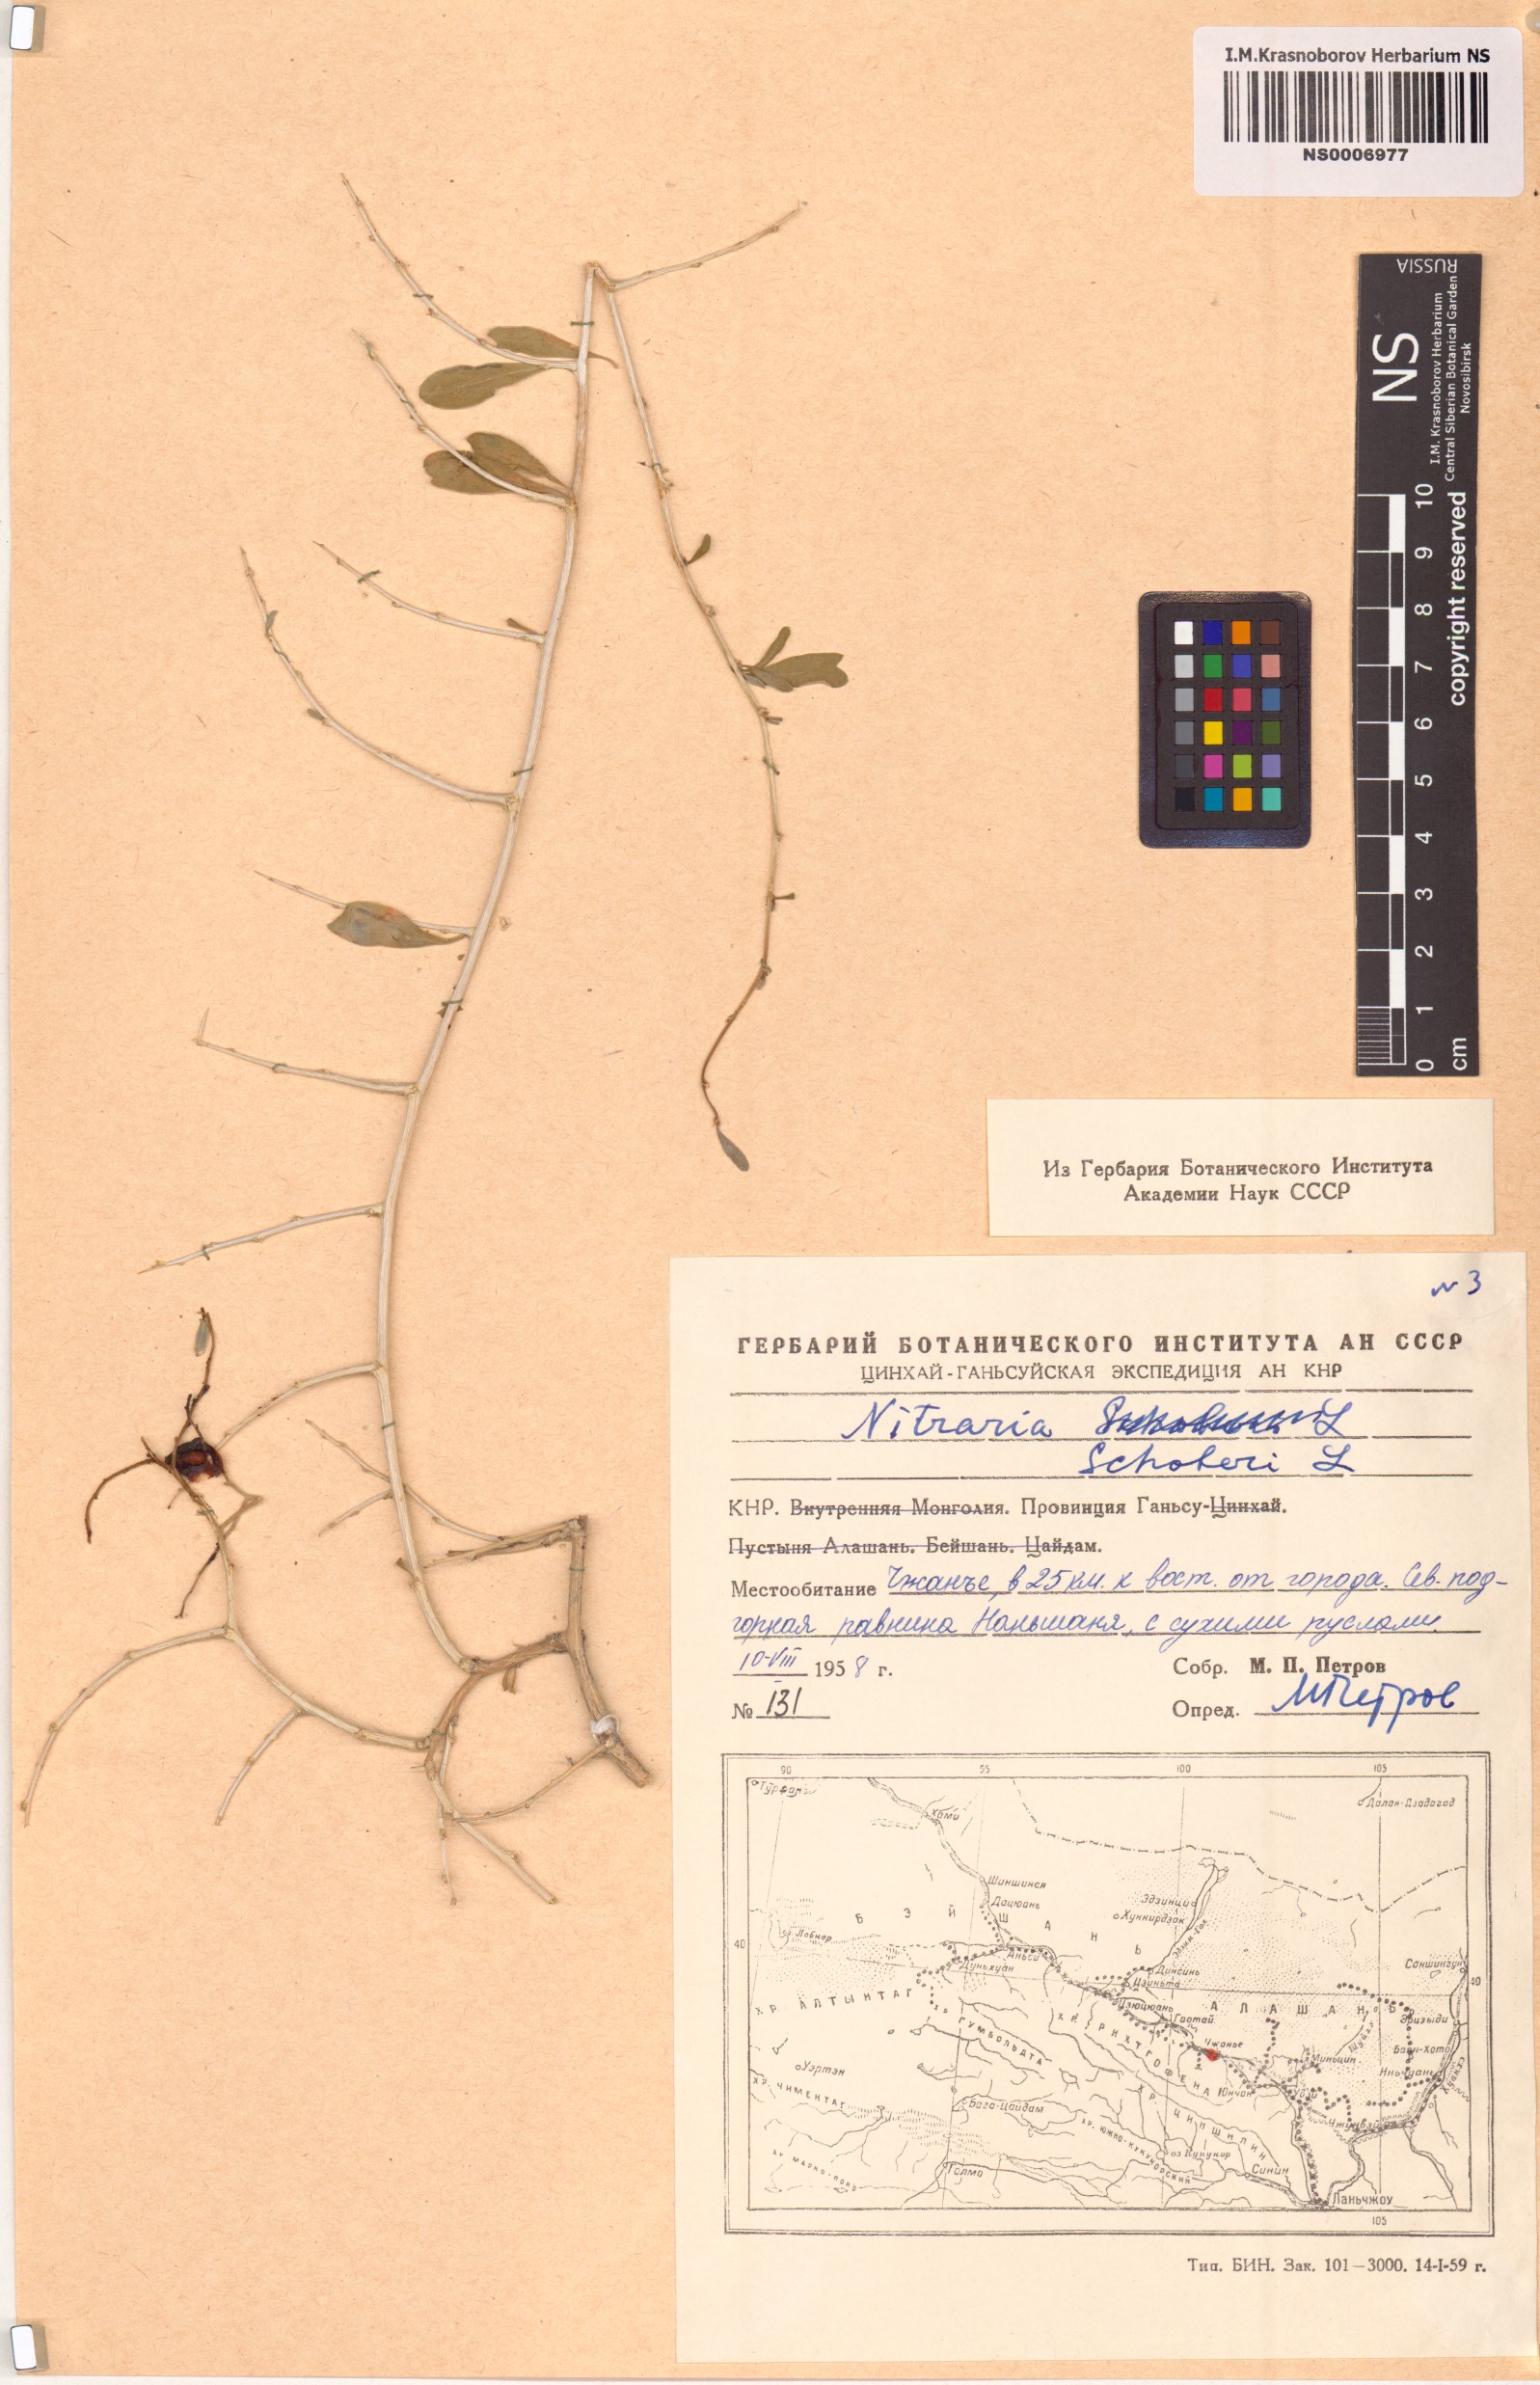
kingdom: Plantae
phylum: Tracheophyta
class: Magnoliopsida
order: Sapindales
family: Nitrariaceae
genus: Nitraria
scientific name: Nitraria schoberi
